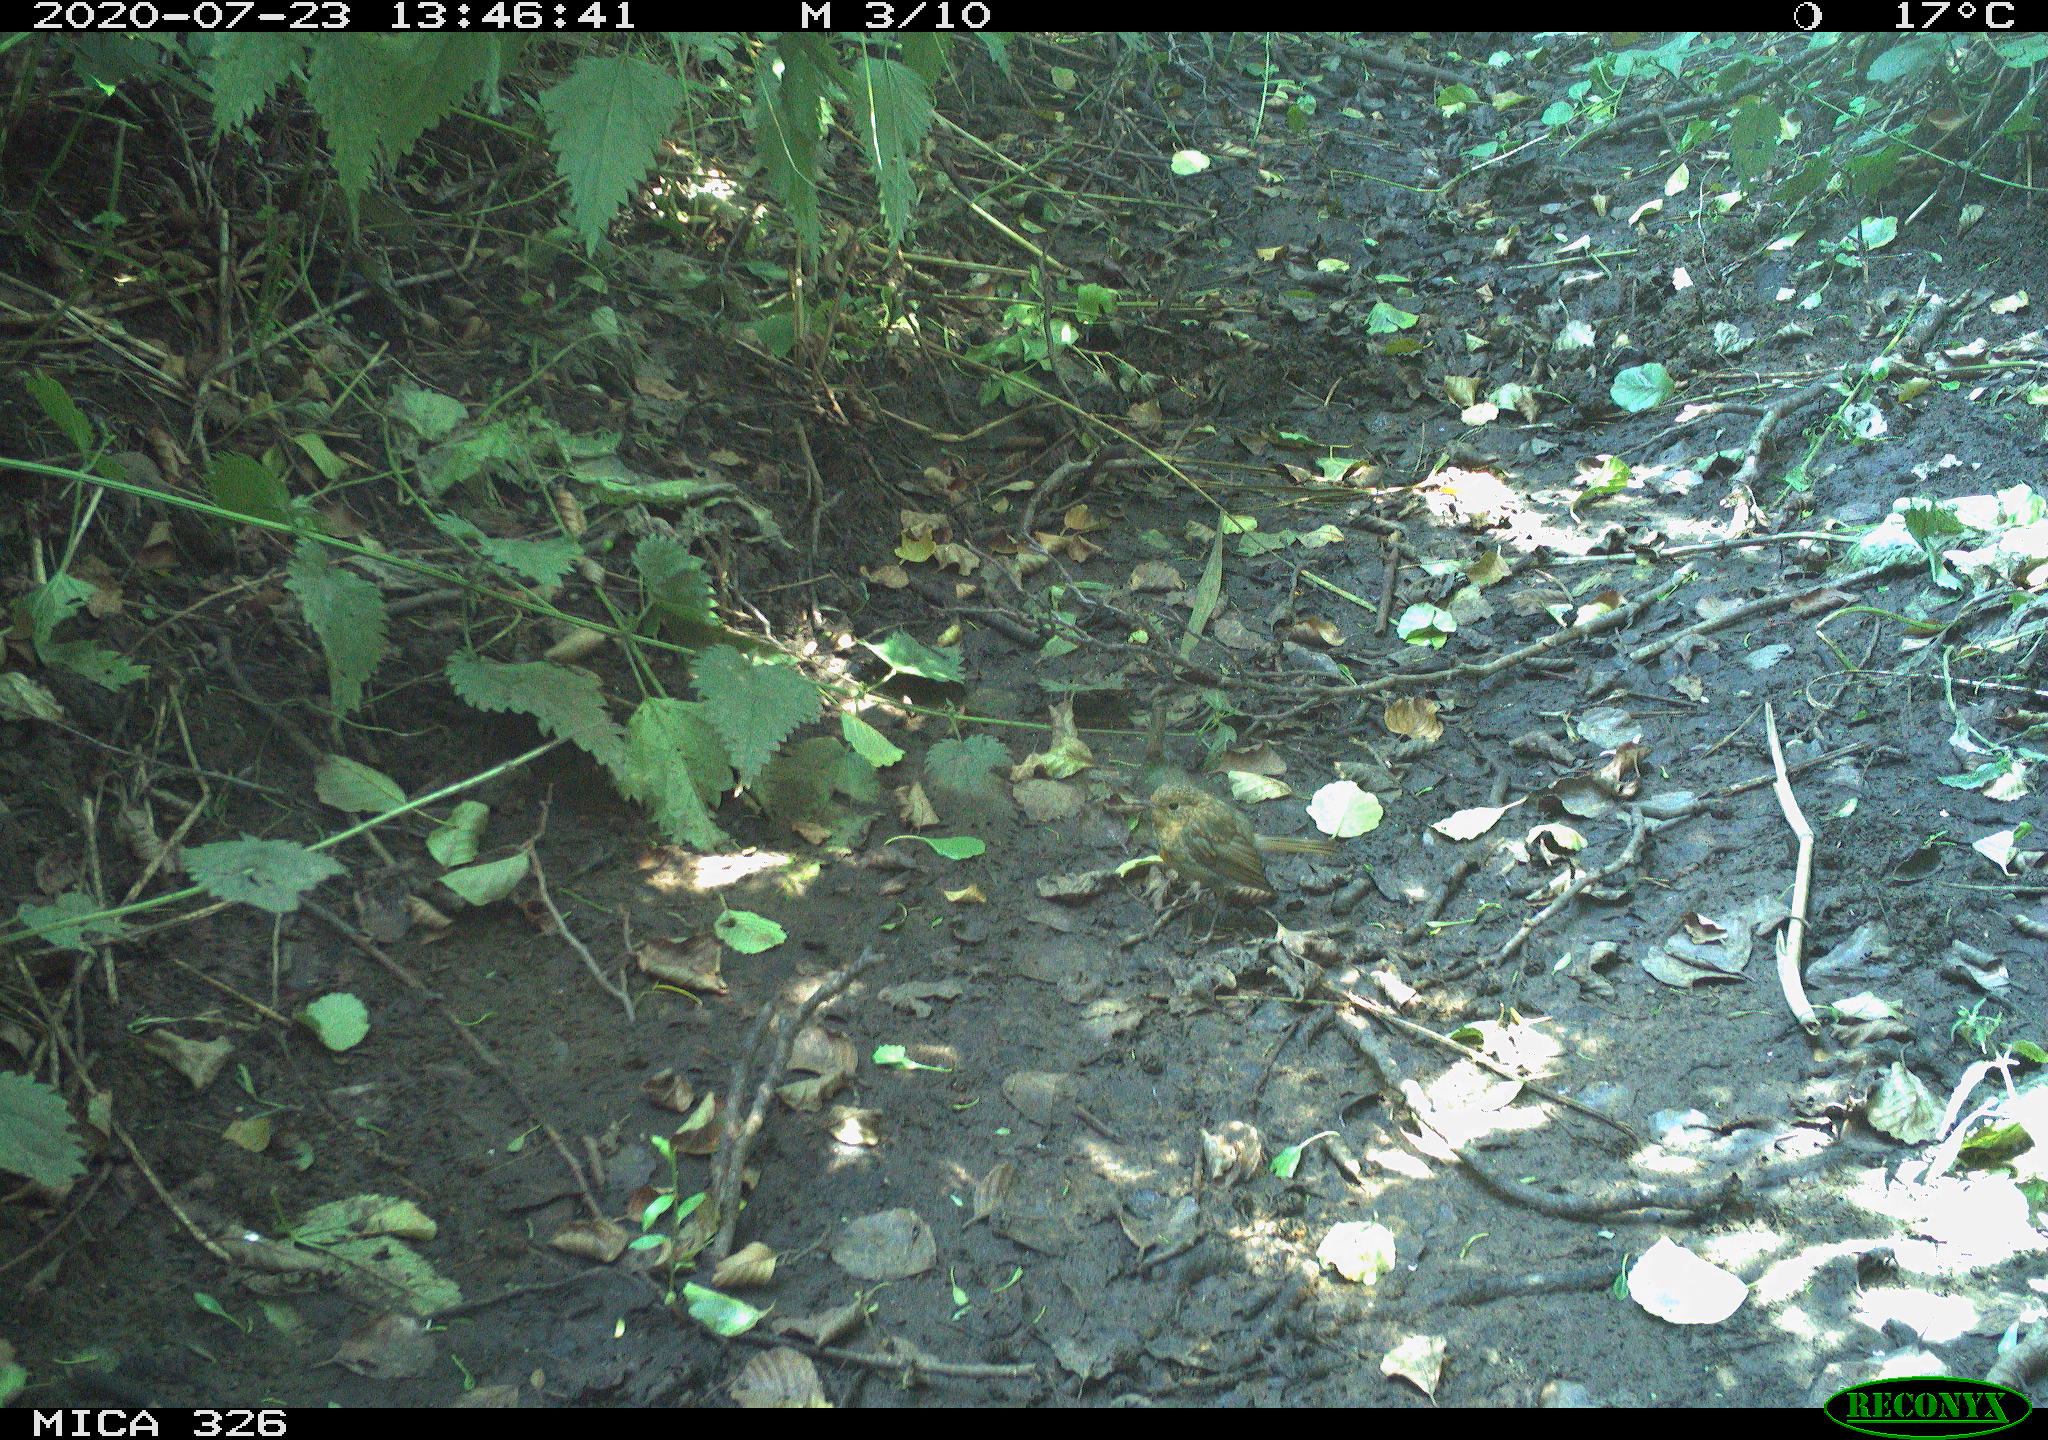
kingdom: Animalia
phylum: Chordata
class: Aves
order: Passeriformes
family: Muscicapidae
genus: Erithacus
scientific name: Erithacus rubecula
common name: European robin
